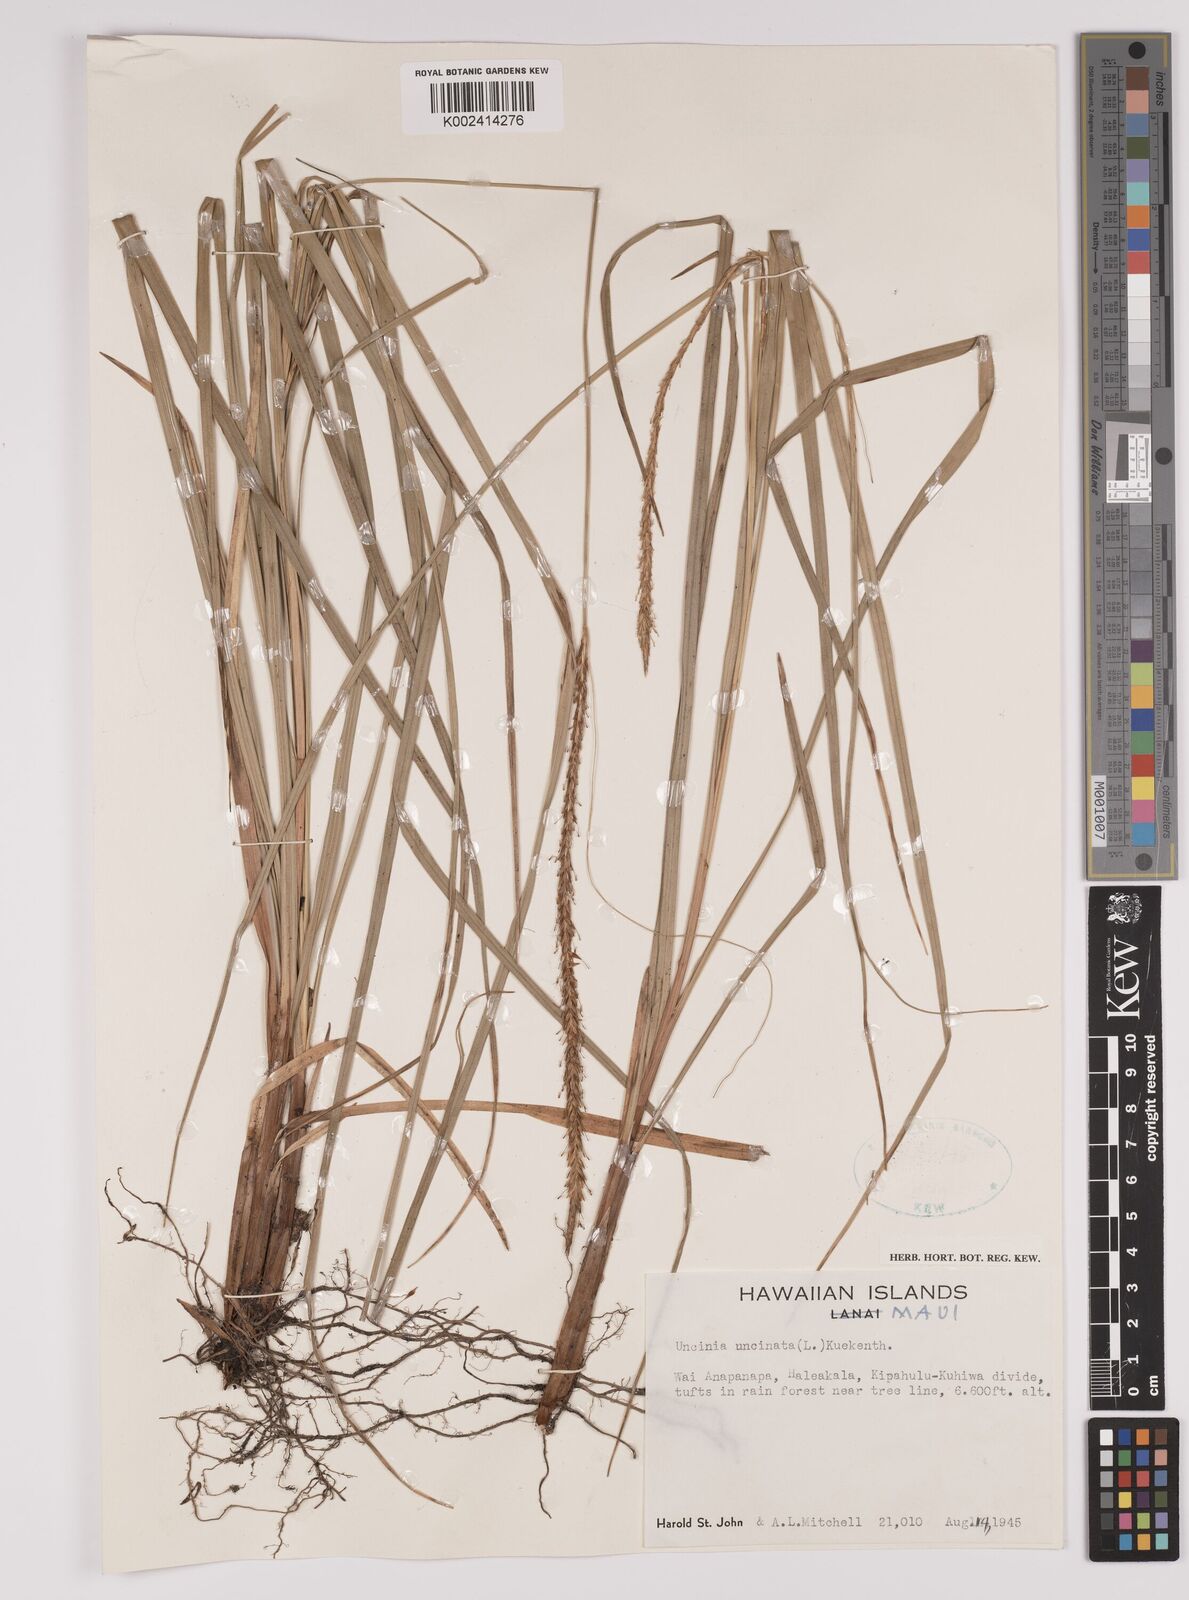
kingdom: Plantae
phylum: Tracheophyta
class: Liliopsida
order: Poales
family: Cyperaceae
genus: Carex
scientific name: Carex uncinata
